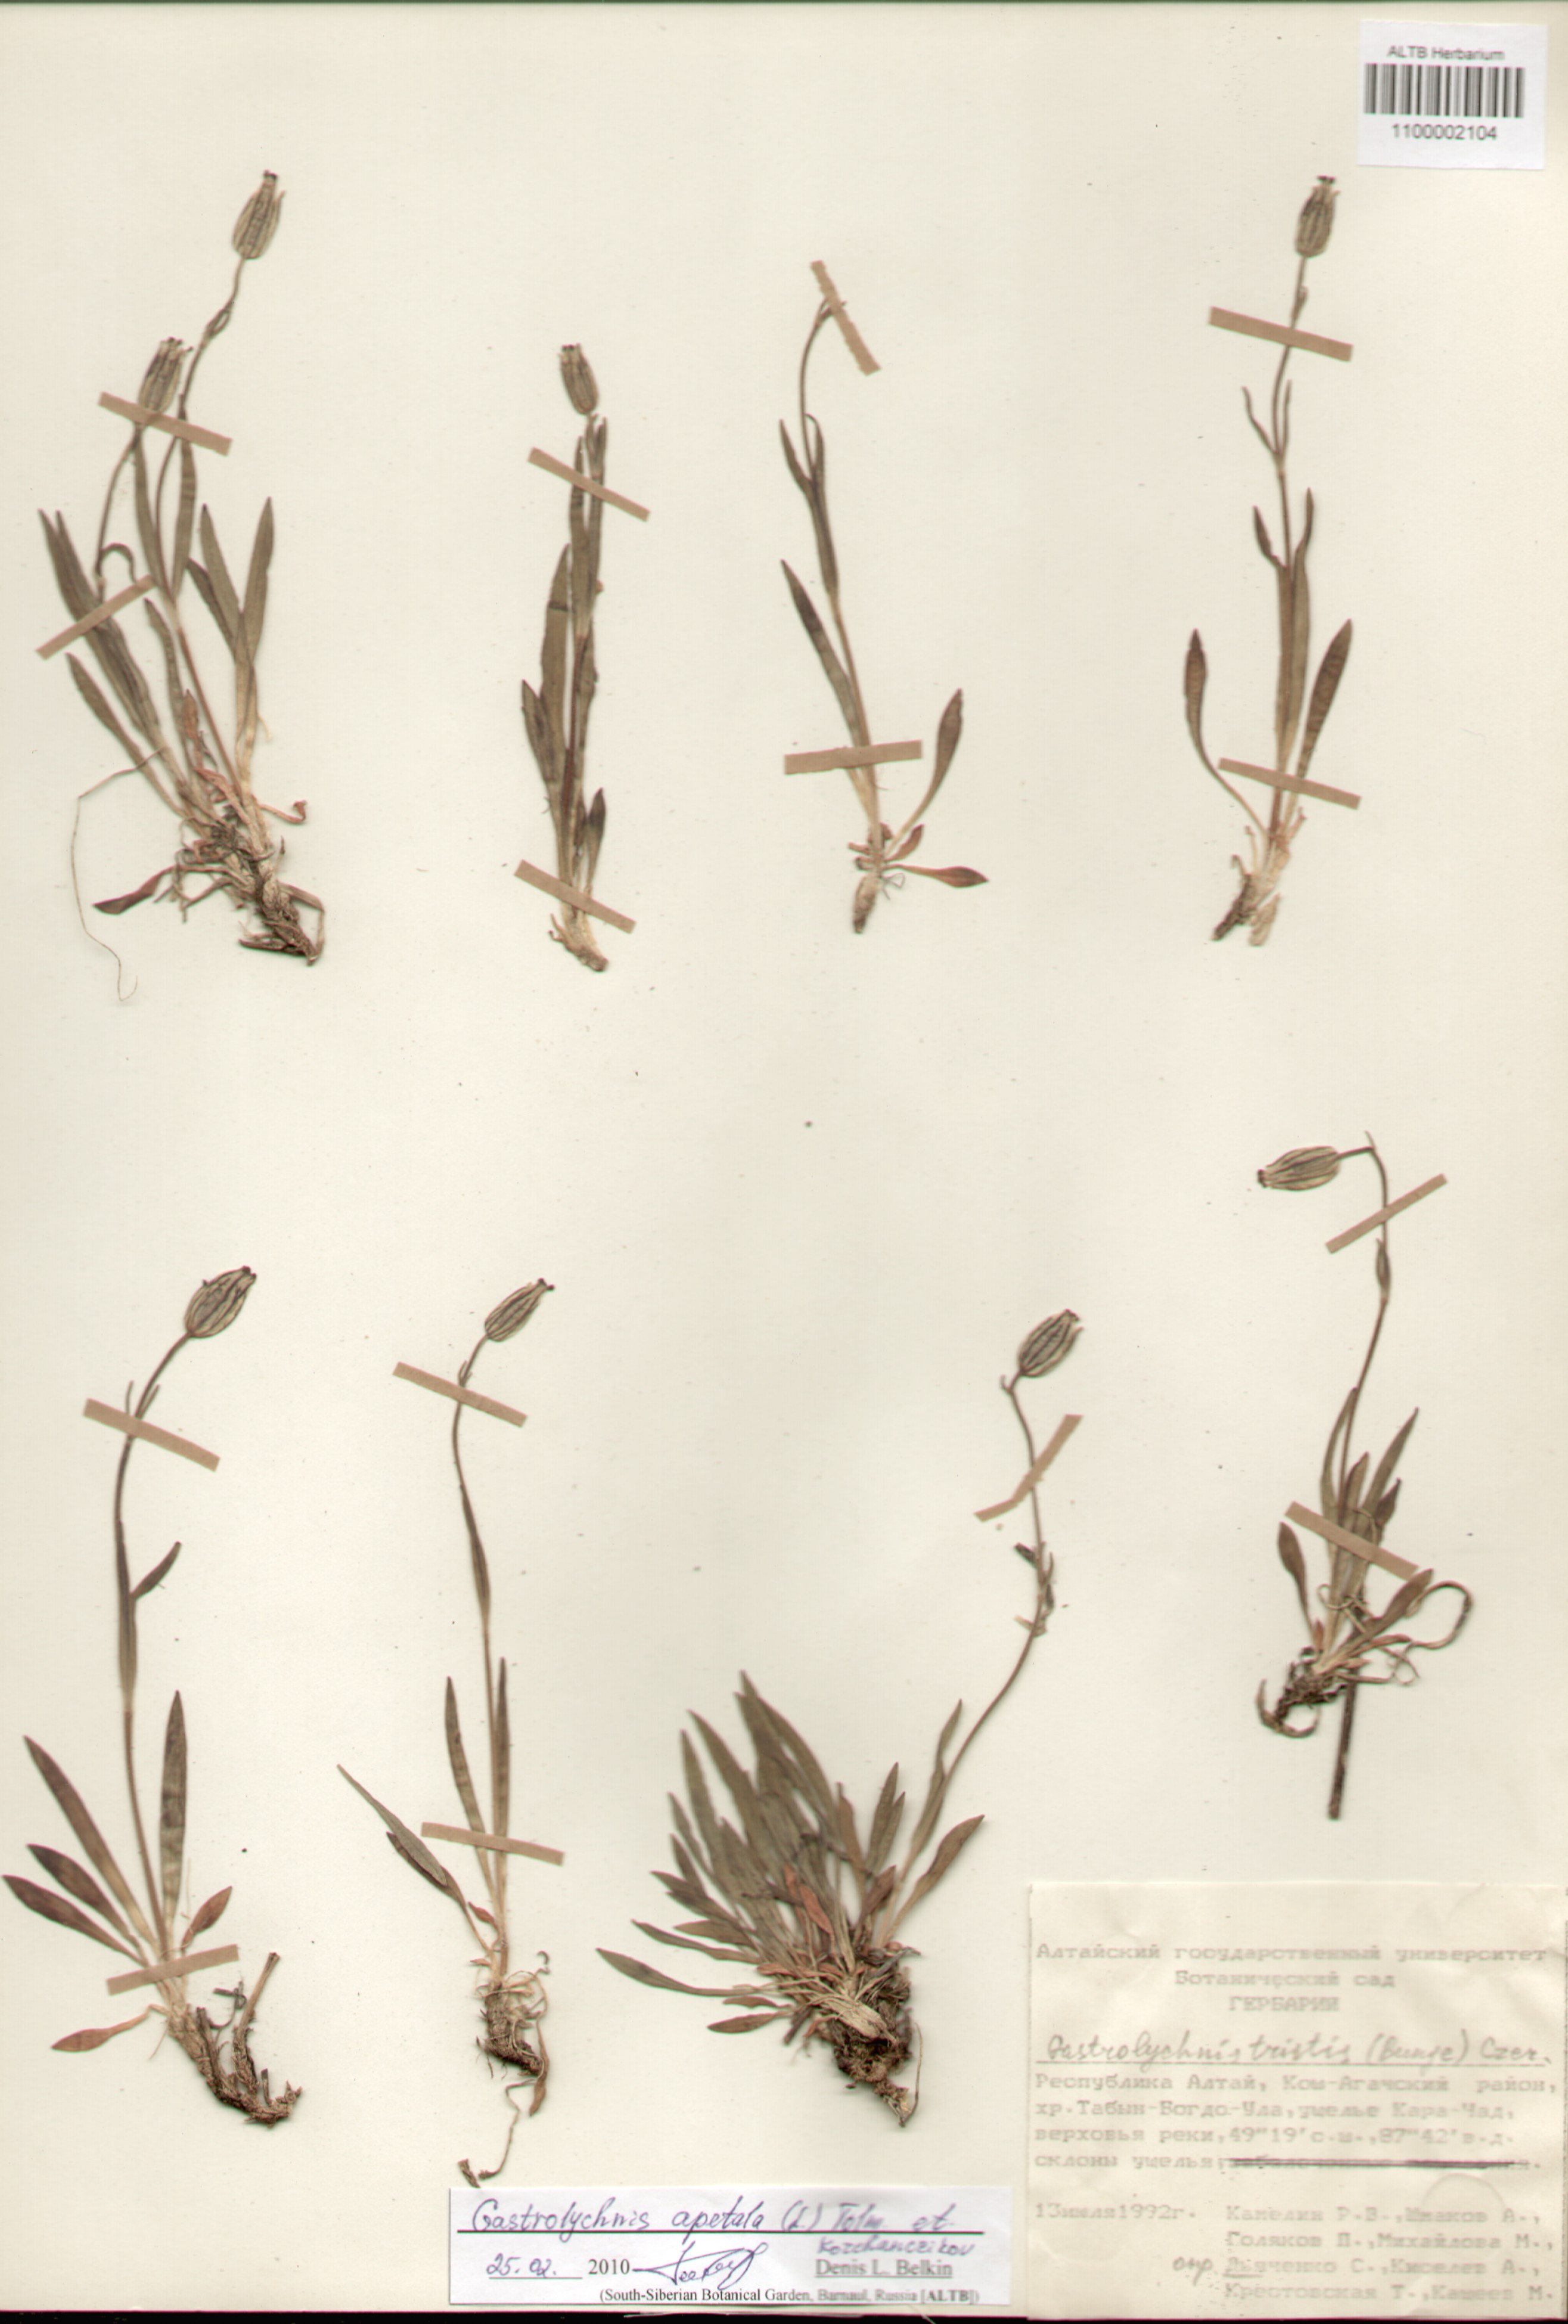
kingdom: Plantae
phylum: Tracheophyta
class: Magnoliopsida
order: Caryophyllales
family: Caryophyllaceae
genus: Silene
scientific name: Silene wahlbergella
